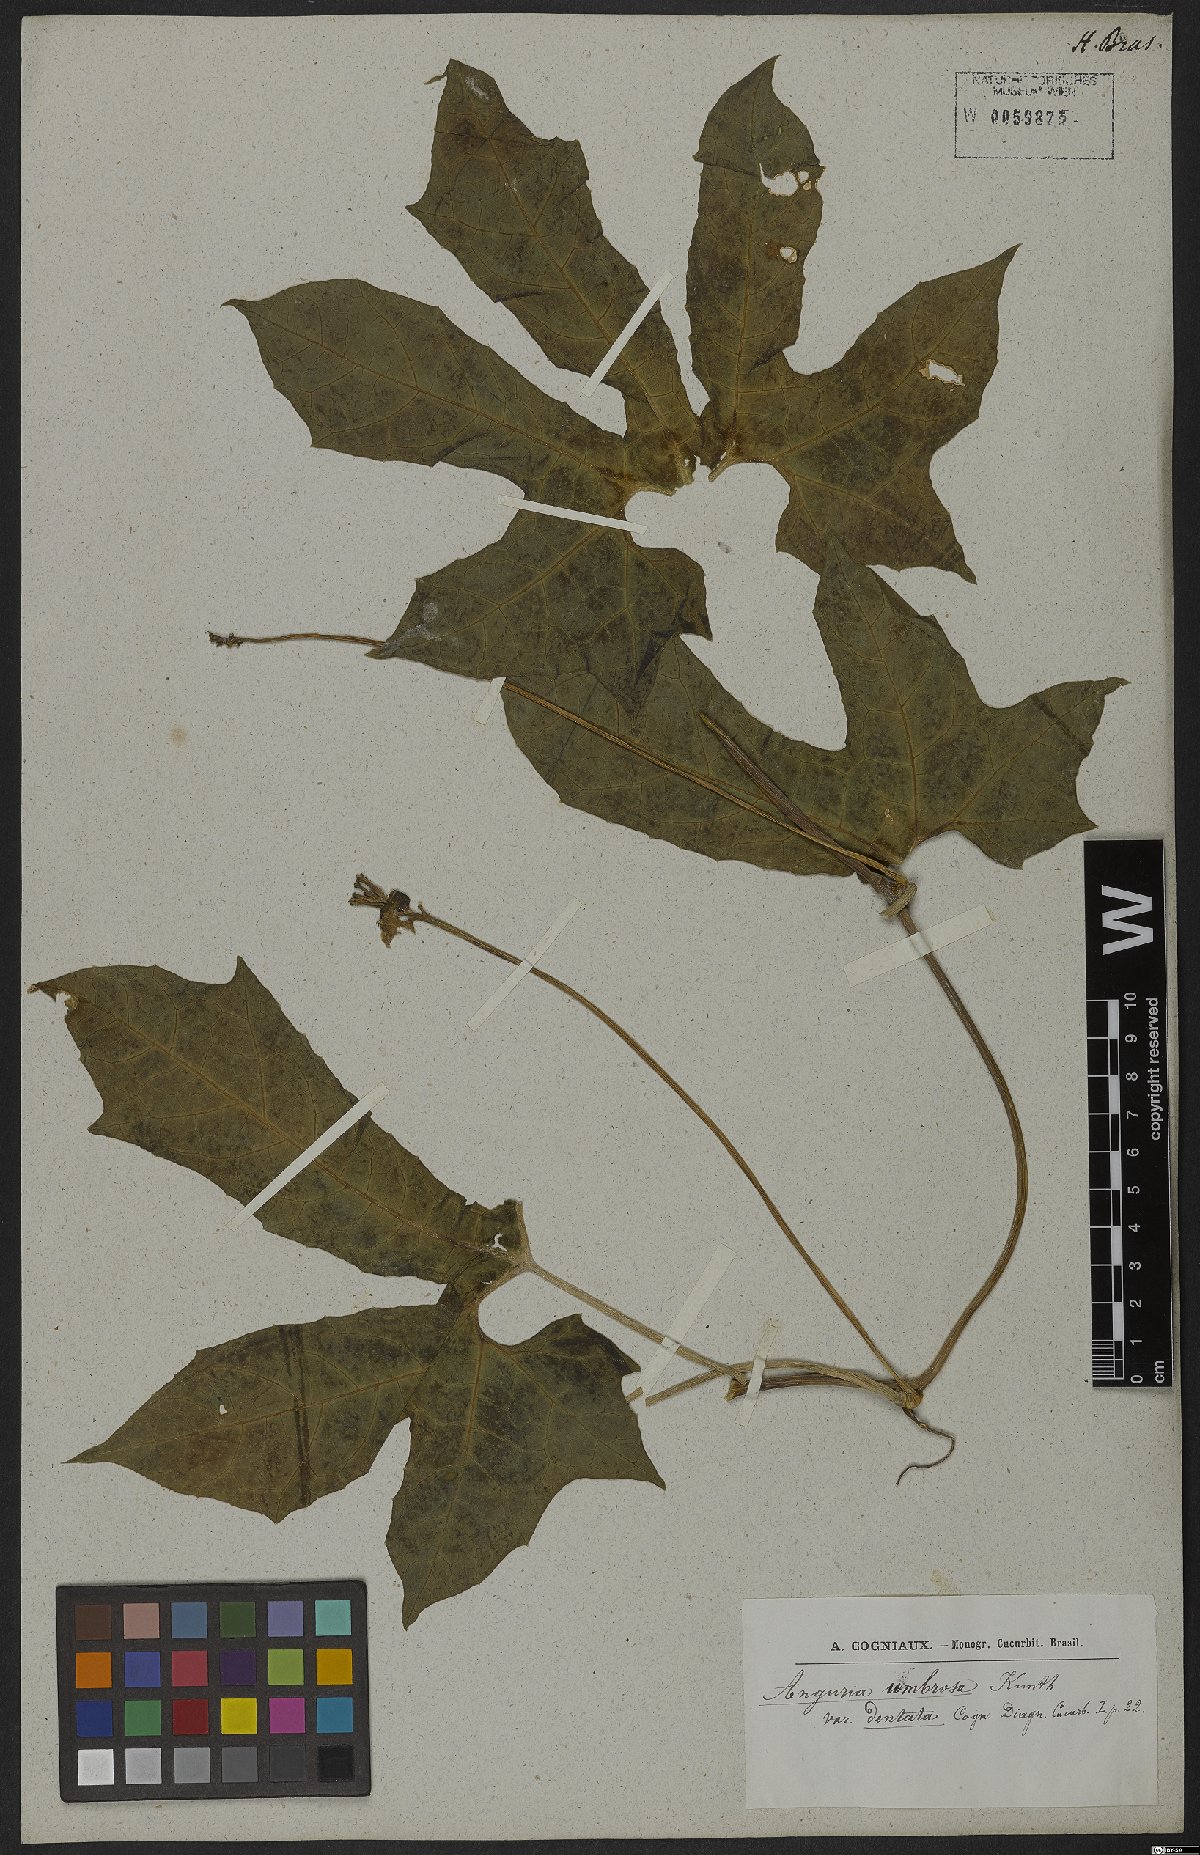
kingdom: Plantae
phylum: Tracheophyta
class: Magnoliopsida
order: Cucurbitales
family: Cucurbitaceae
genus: Psiguria
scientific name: Psiguria umbrosa
